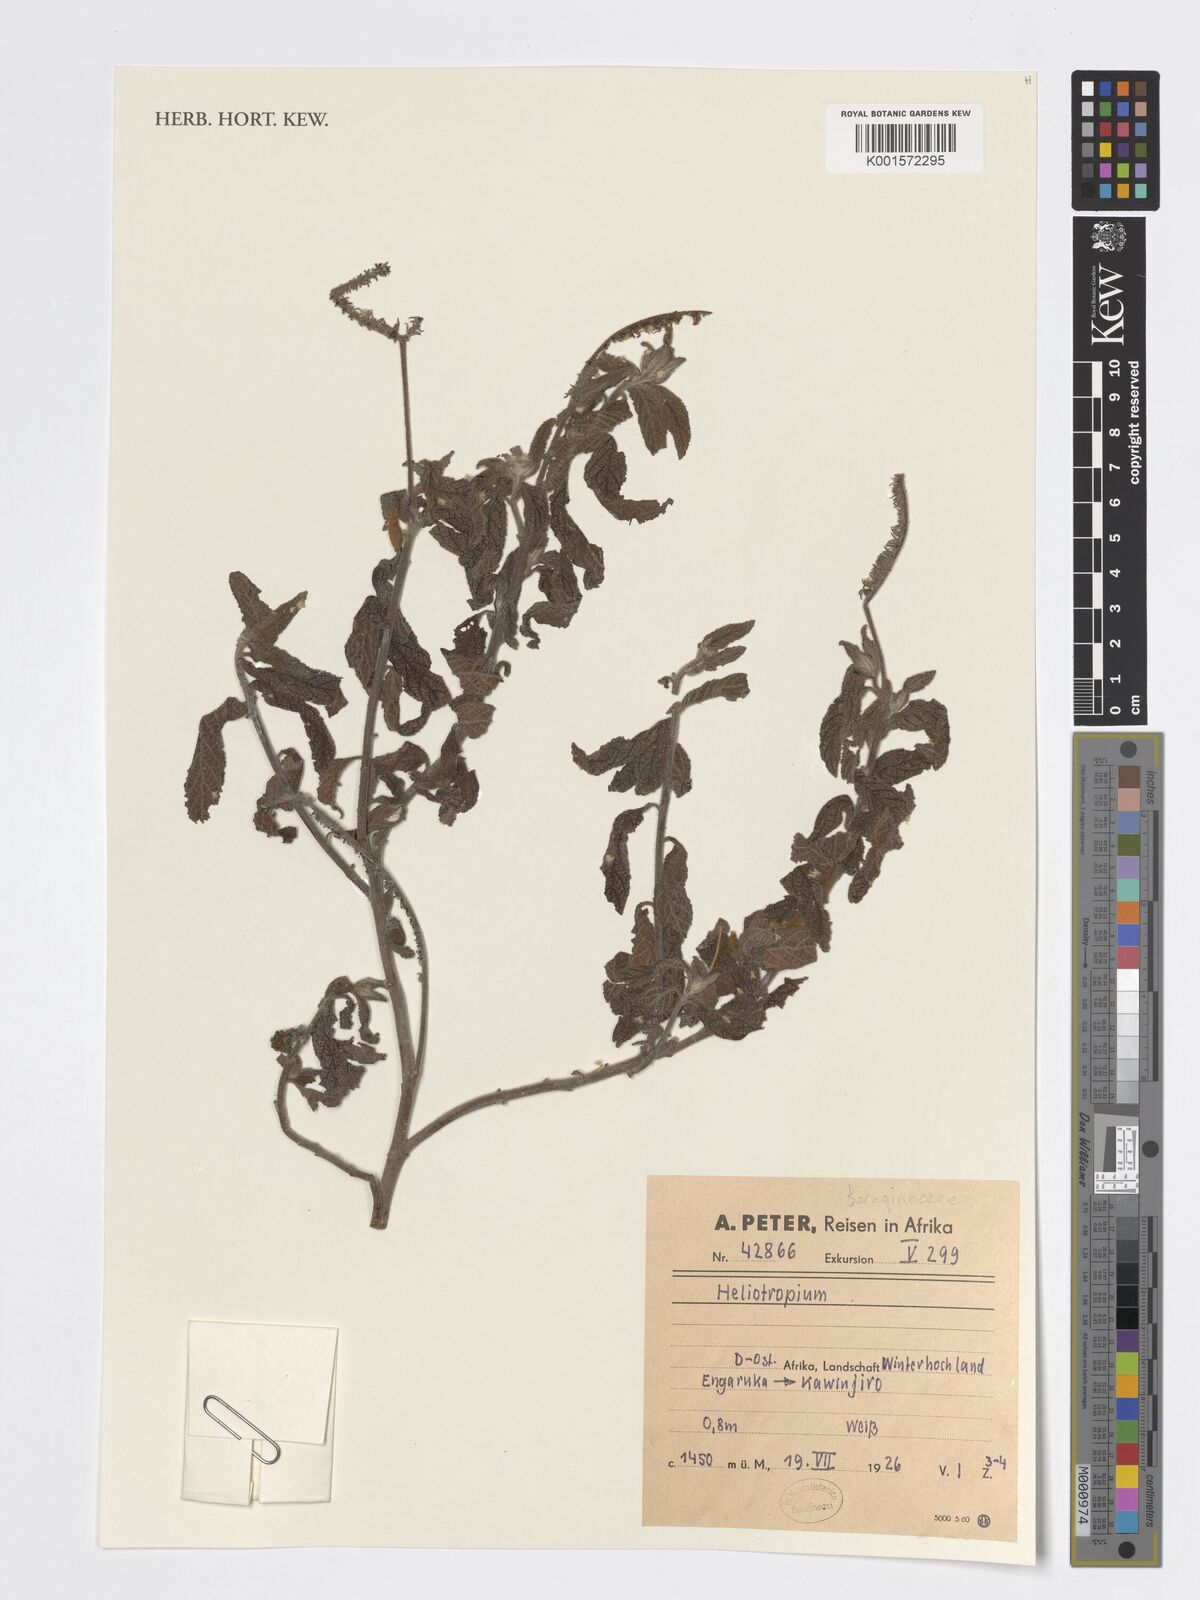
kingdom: Plantae
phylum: Tracheophyta
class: Magnoliopsida
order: Boraginales
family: Heliotropiaceae
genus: Heliotropium
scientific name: Heliotropium
